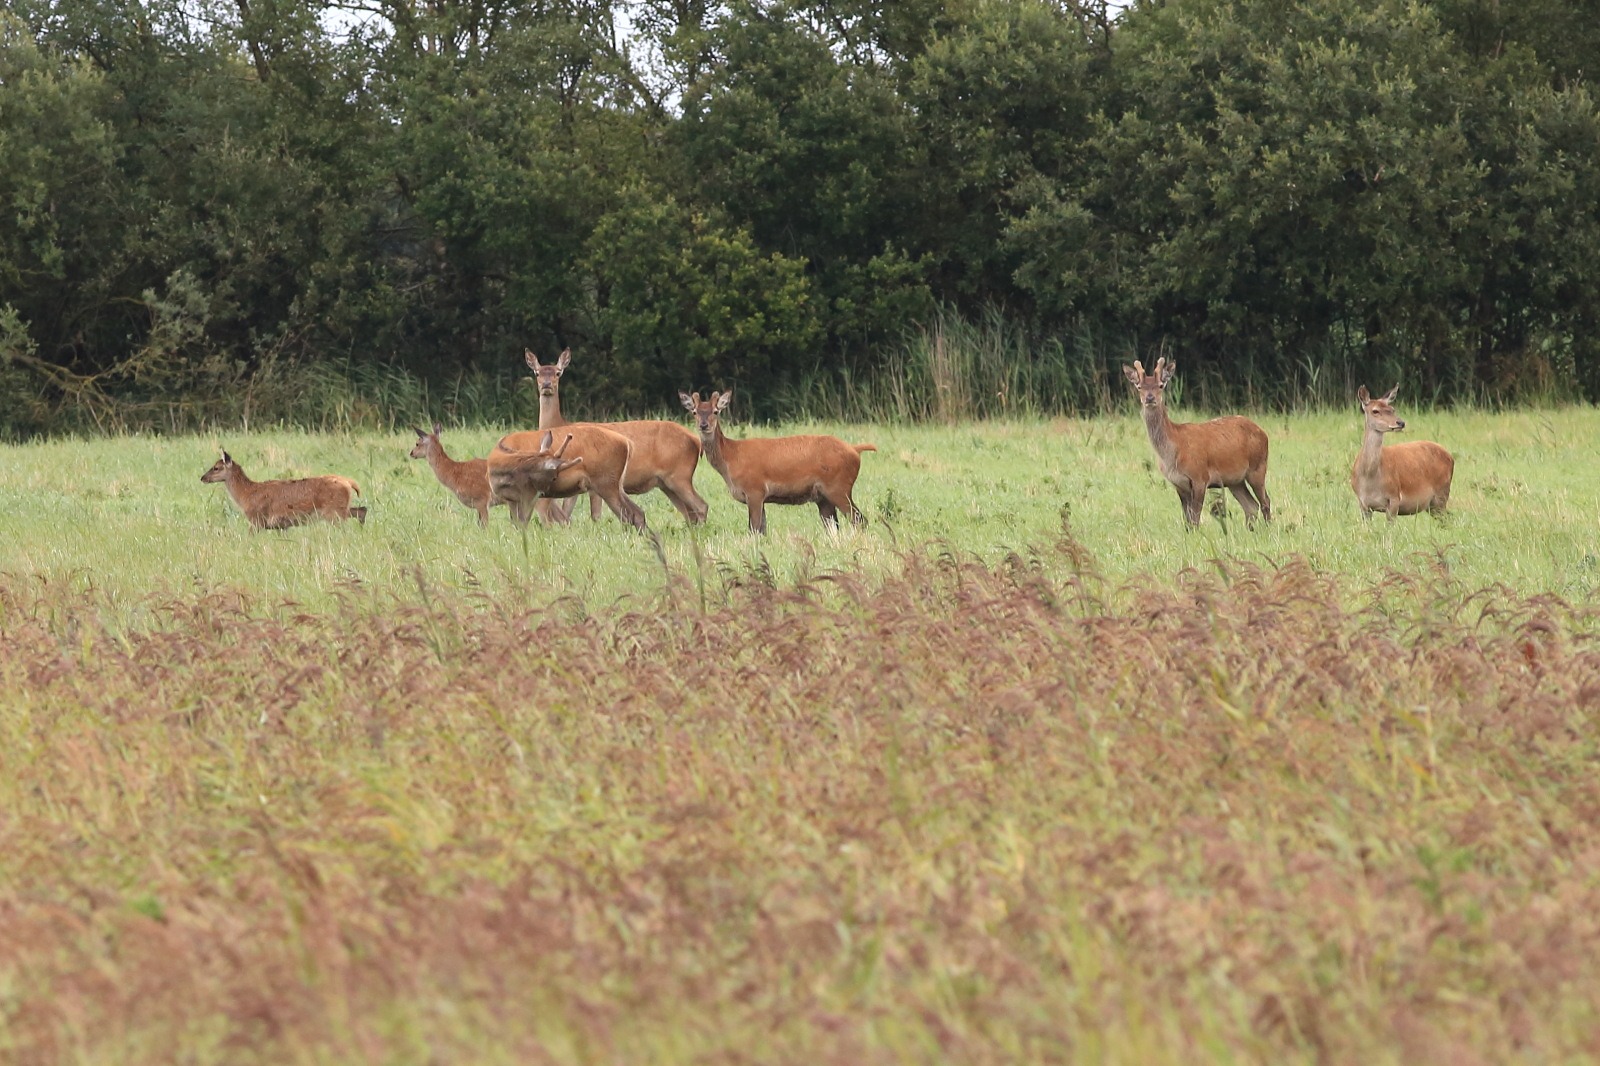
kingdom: Animalia
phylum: Chordata
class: Mammalia
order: Artiodactyla
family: Cervidae
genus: Cervus
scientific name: Cervus elaphus
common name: Krondyr
